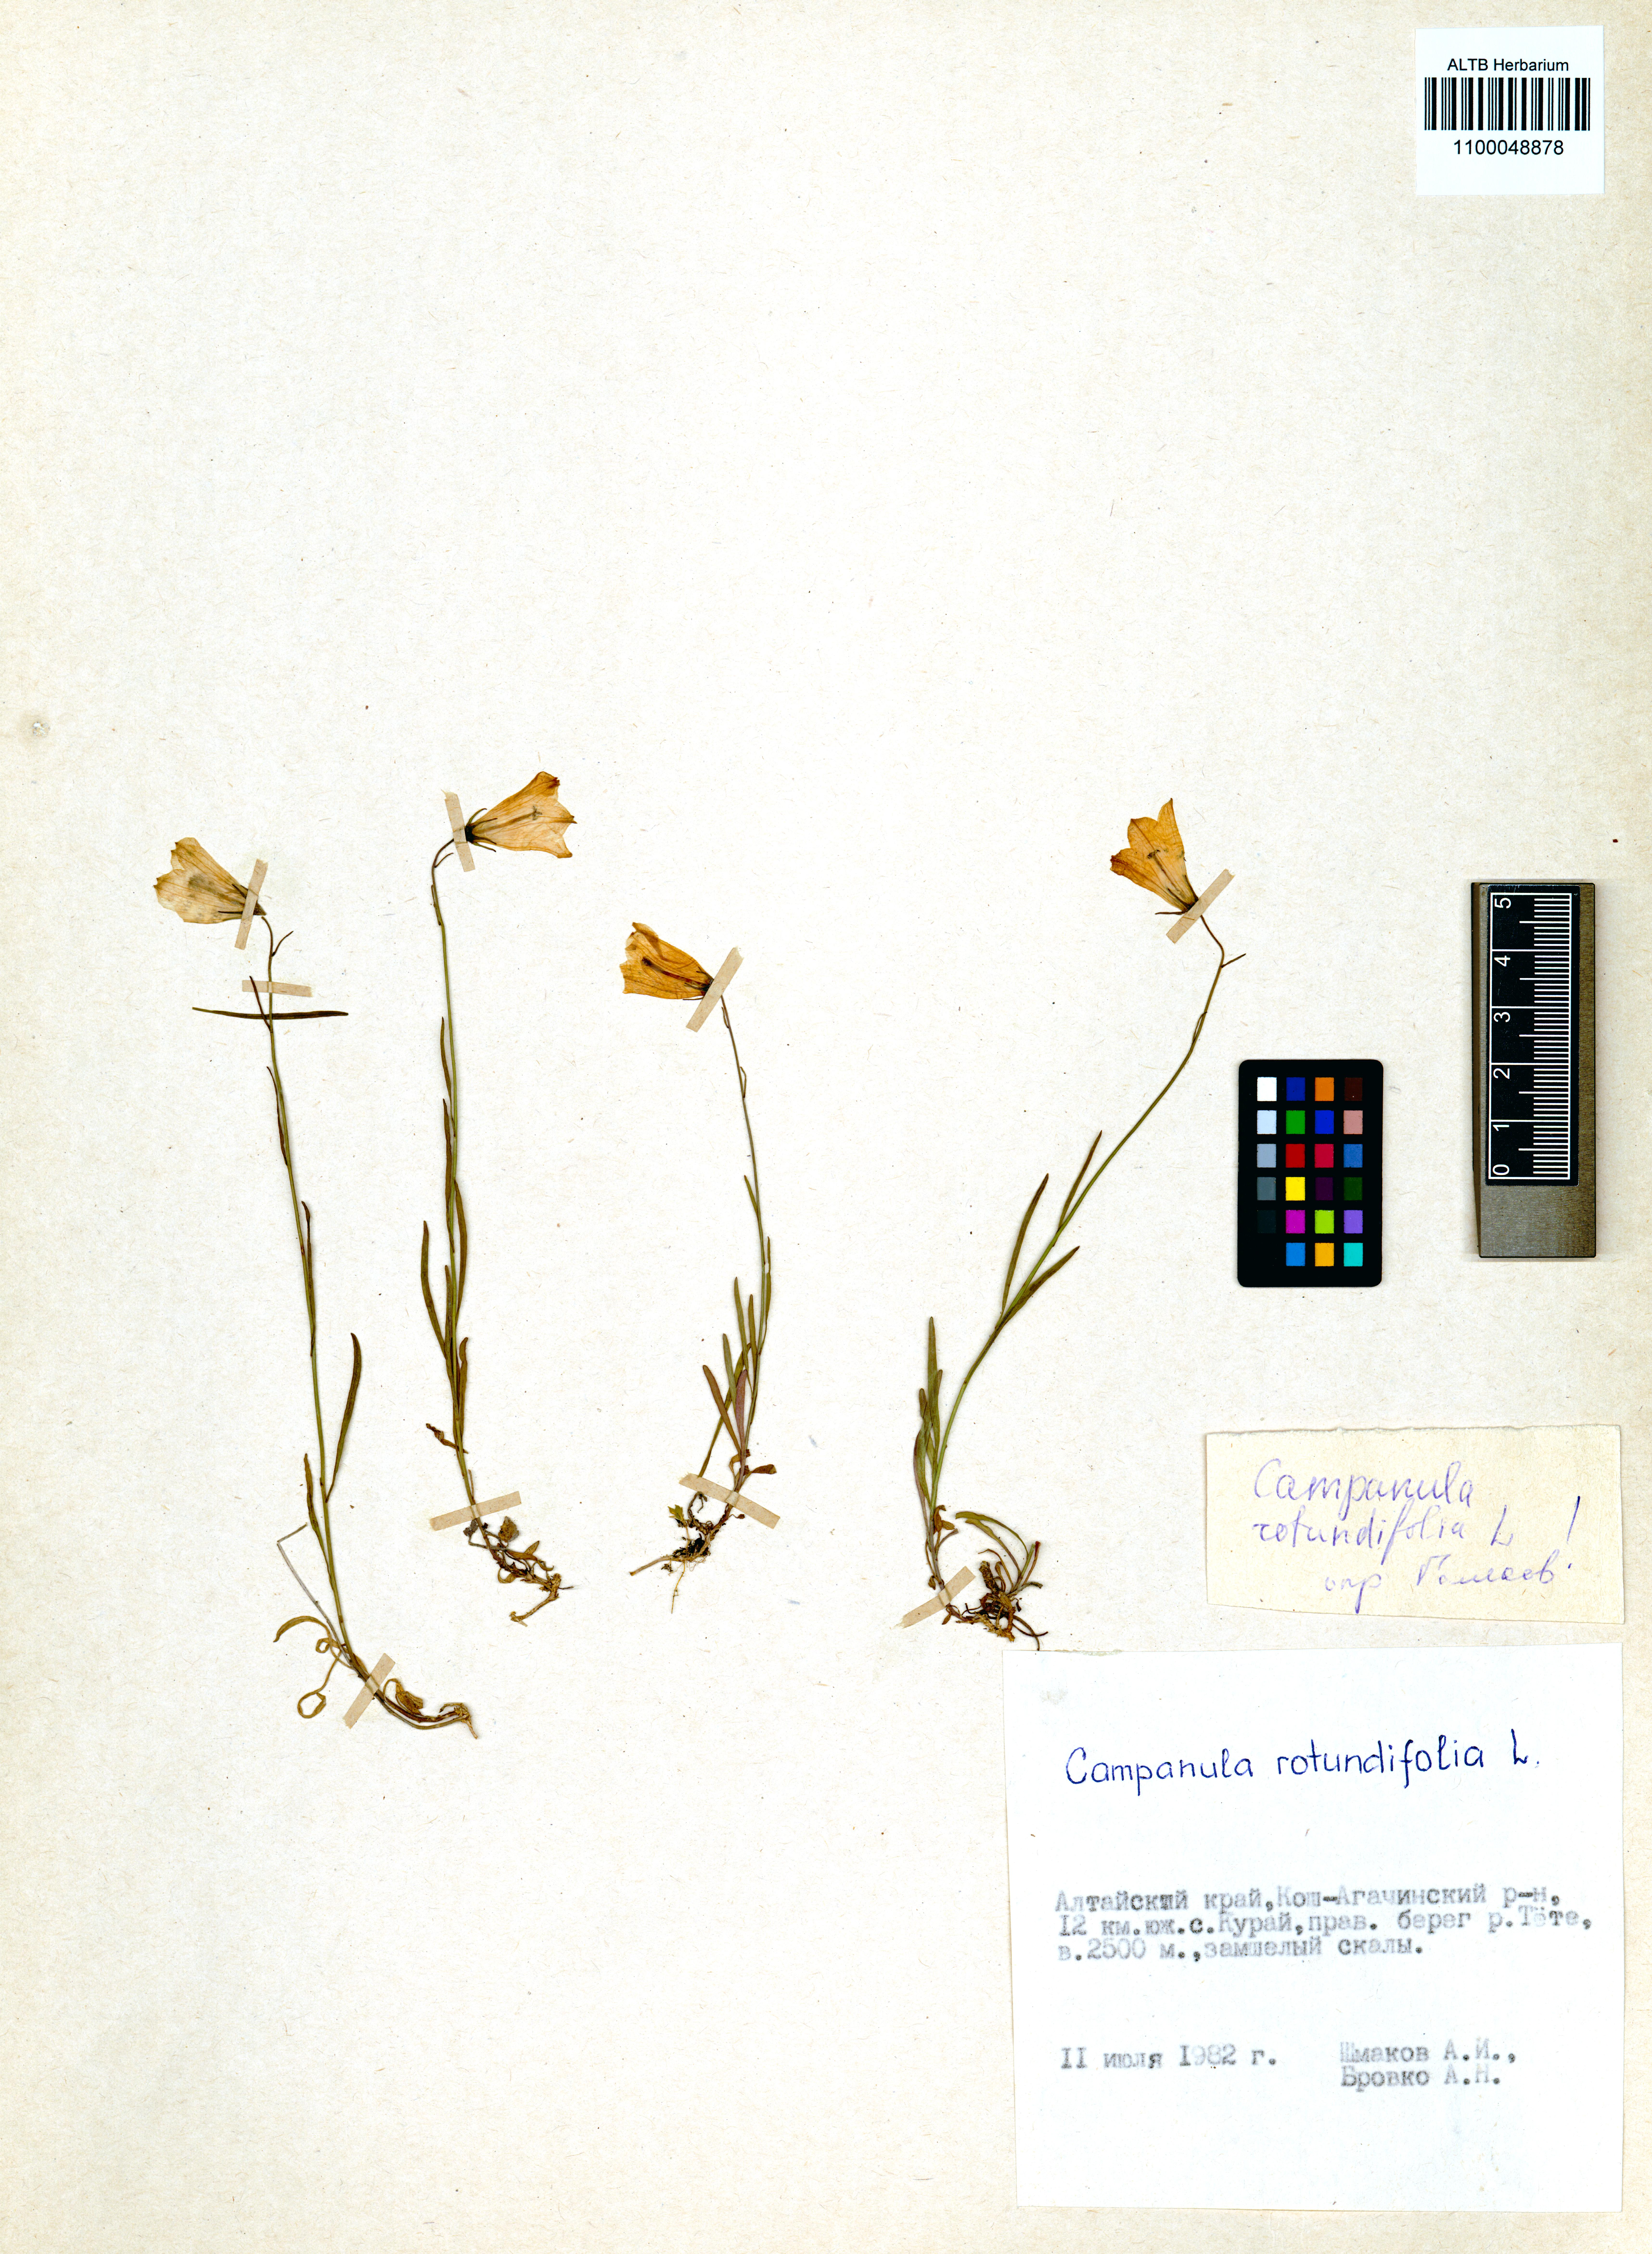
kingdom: Plantae
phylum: Tracheophyta
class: Magnoliopsida
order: Asterales
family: Campanulaceae
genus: Campanula
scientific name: Campanula rotundifolia
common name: Harebell
